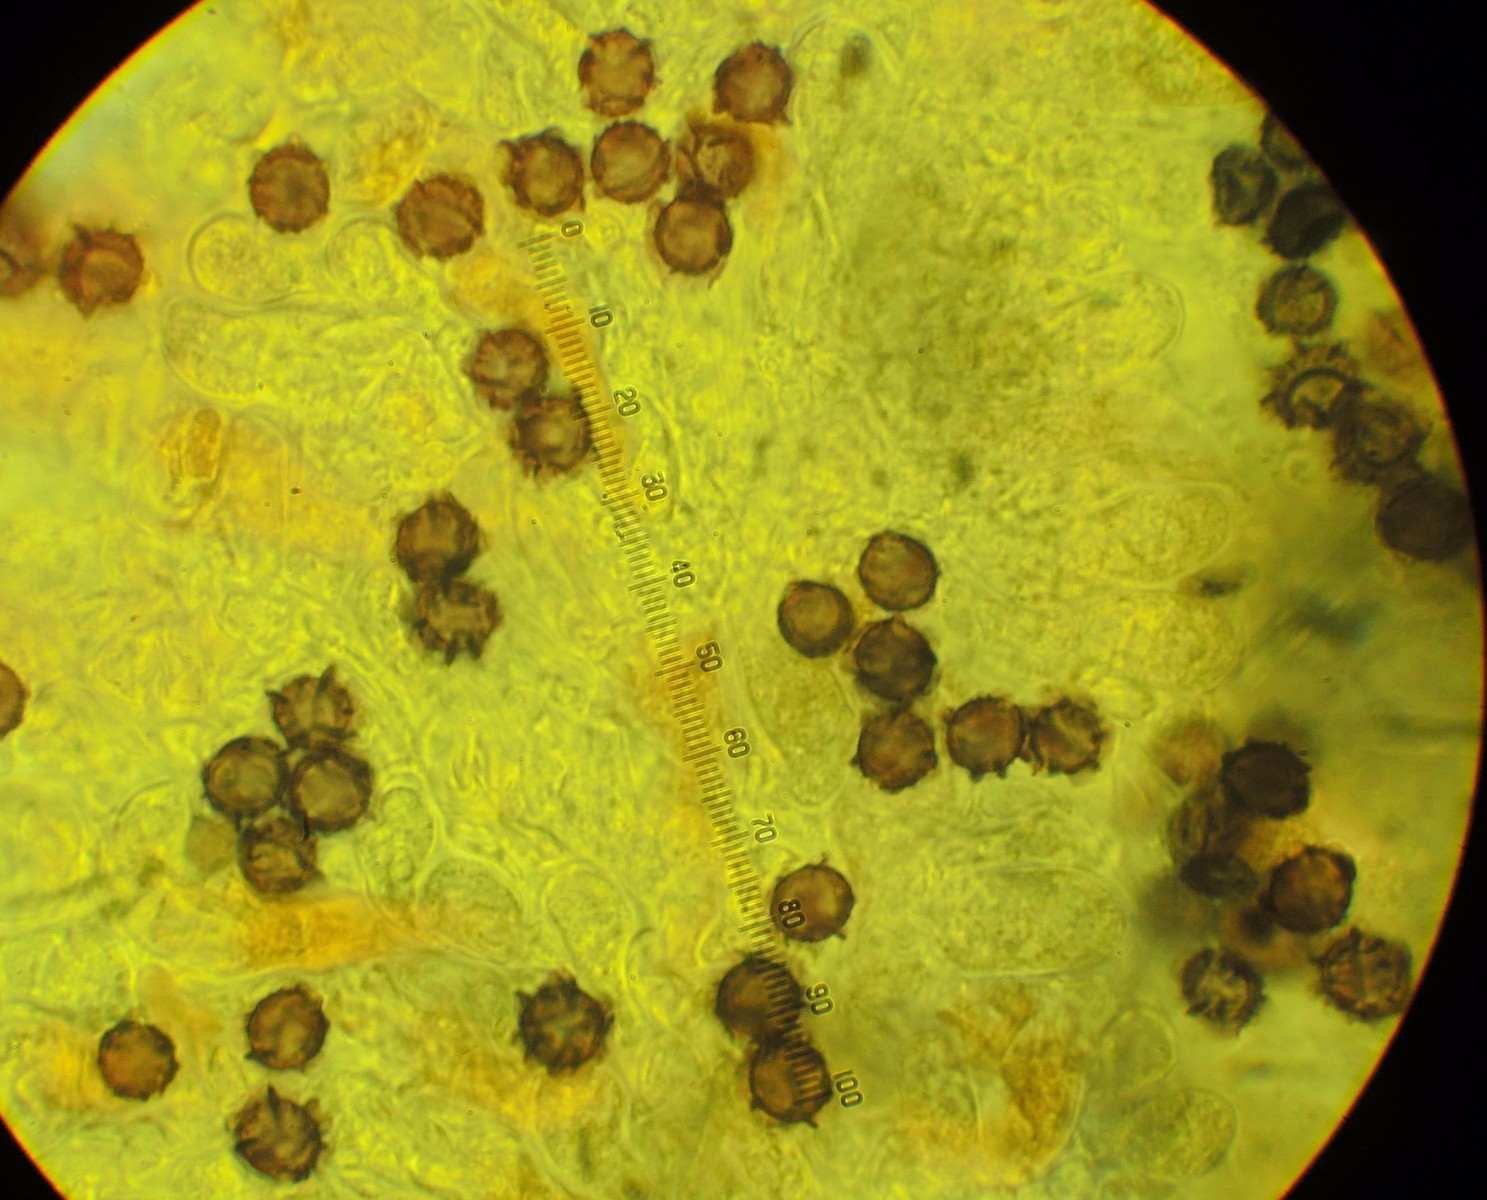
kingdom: Fungi
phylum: Basidiomycota
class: Agaricomycetes
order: Russulales
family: Russulaceae
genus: Lactarius
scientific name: Lactarius azonites
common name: røggrå mælkehat
